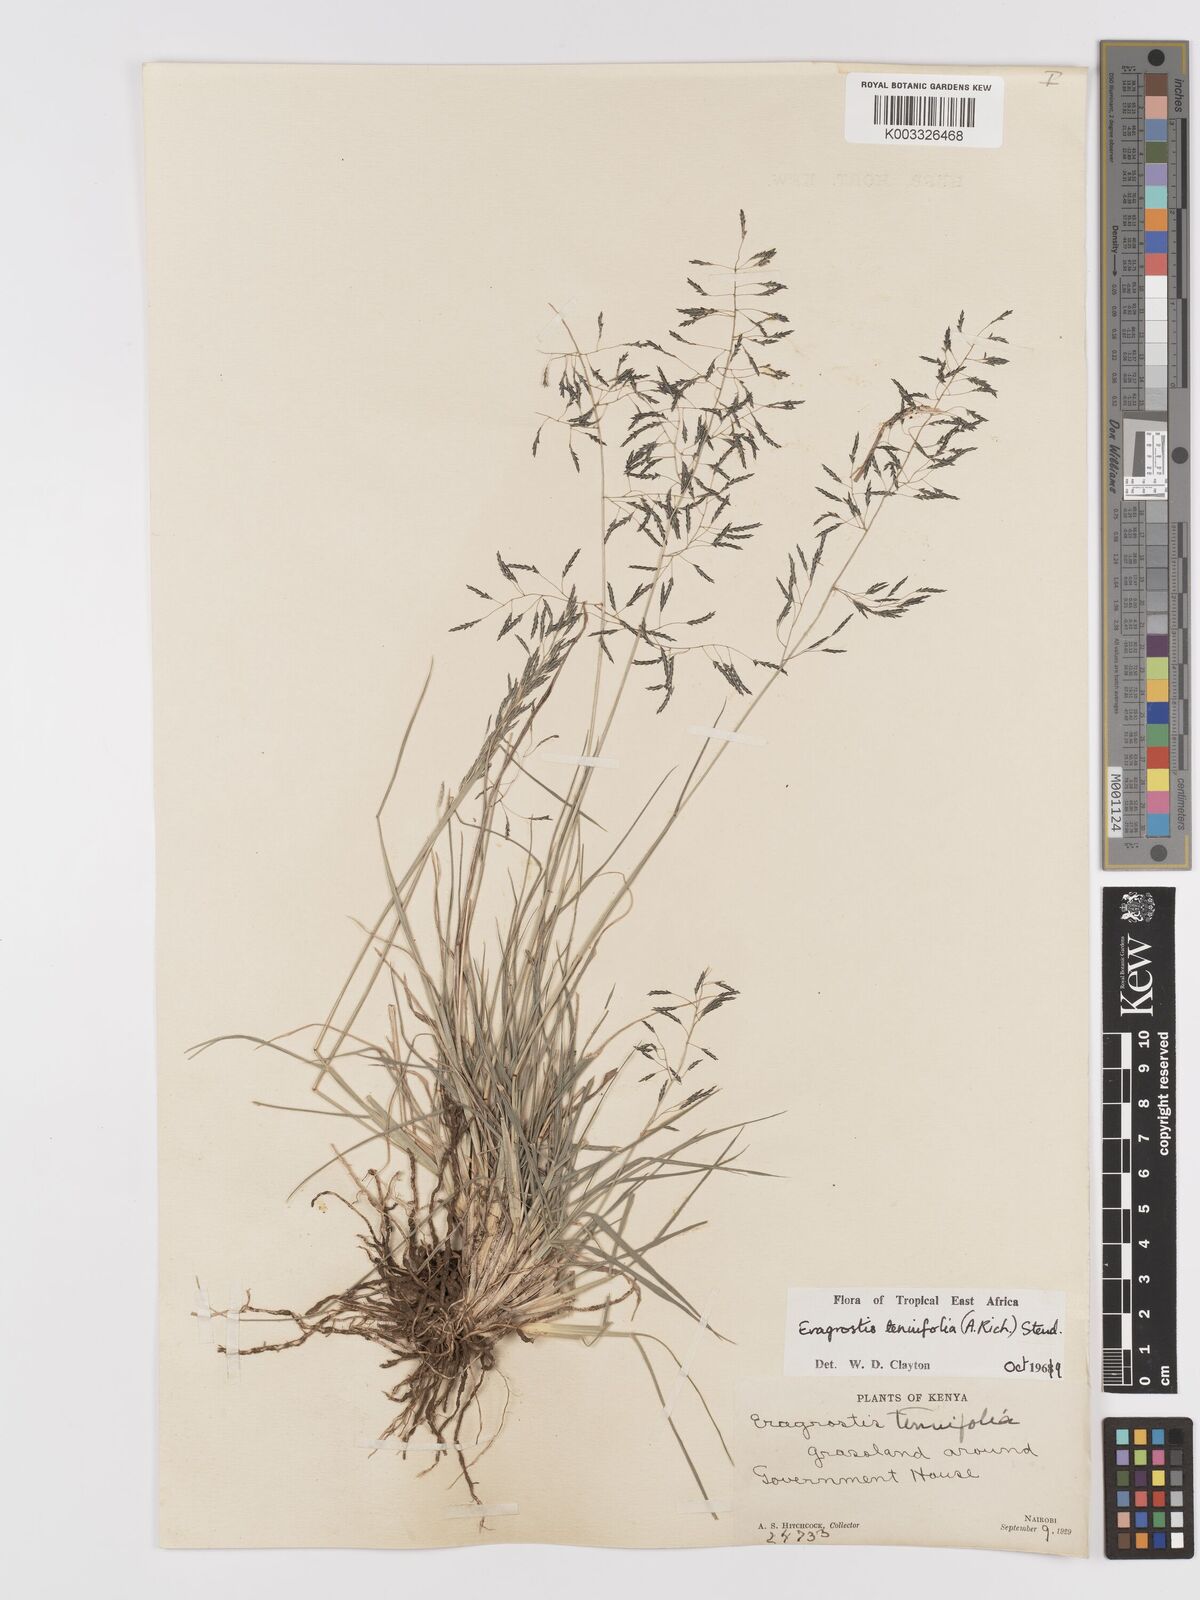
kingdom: Plantae
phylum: Tracheophyta
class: Liliopsida
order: Poales
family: Poaceae
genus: Eragrostis
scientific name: Eragrostis tenuifolia
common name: Elastic grass
